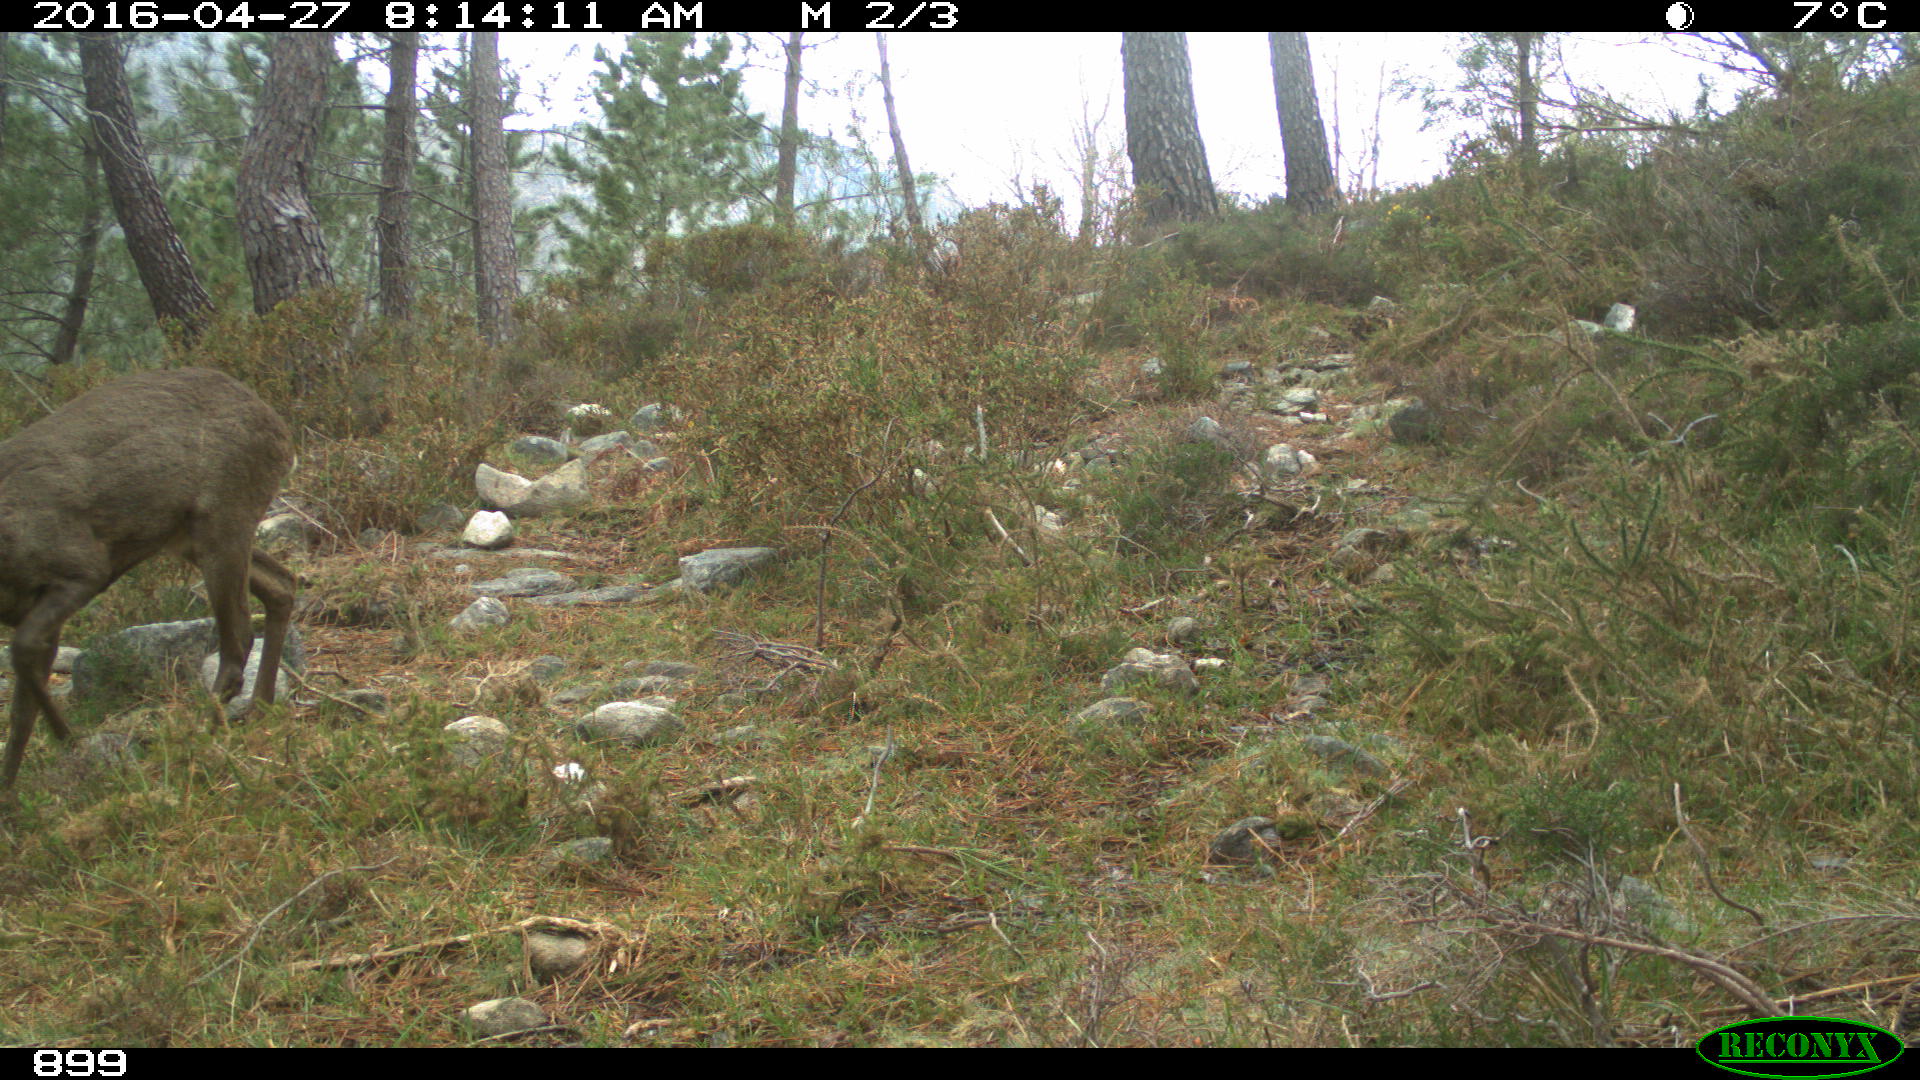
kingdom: Animalia
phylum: Chordata
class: Mammalia
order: Artiodactyla
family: Cervidae
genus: Capreolus
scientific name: Capreolus capreolus
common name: Western roe deer
